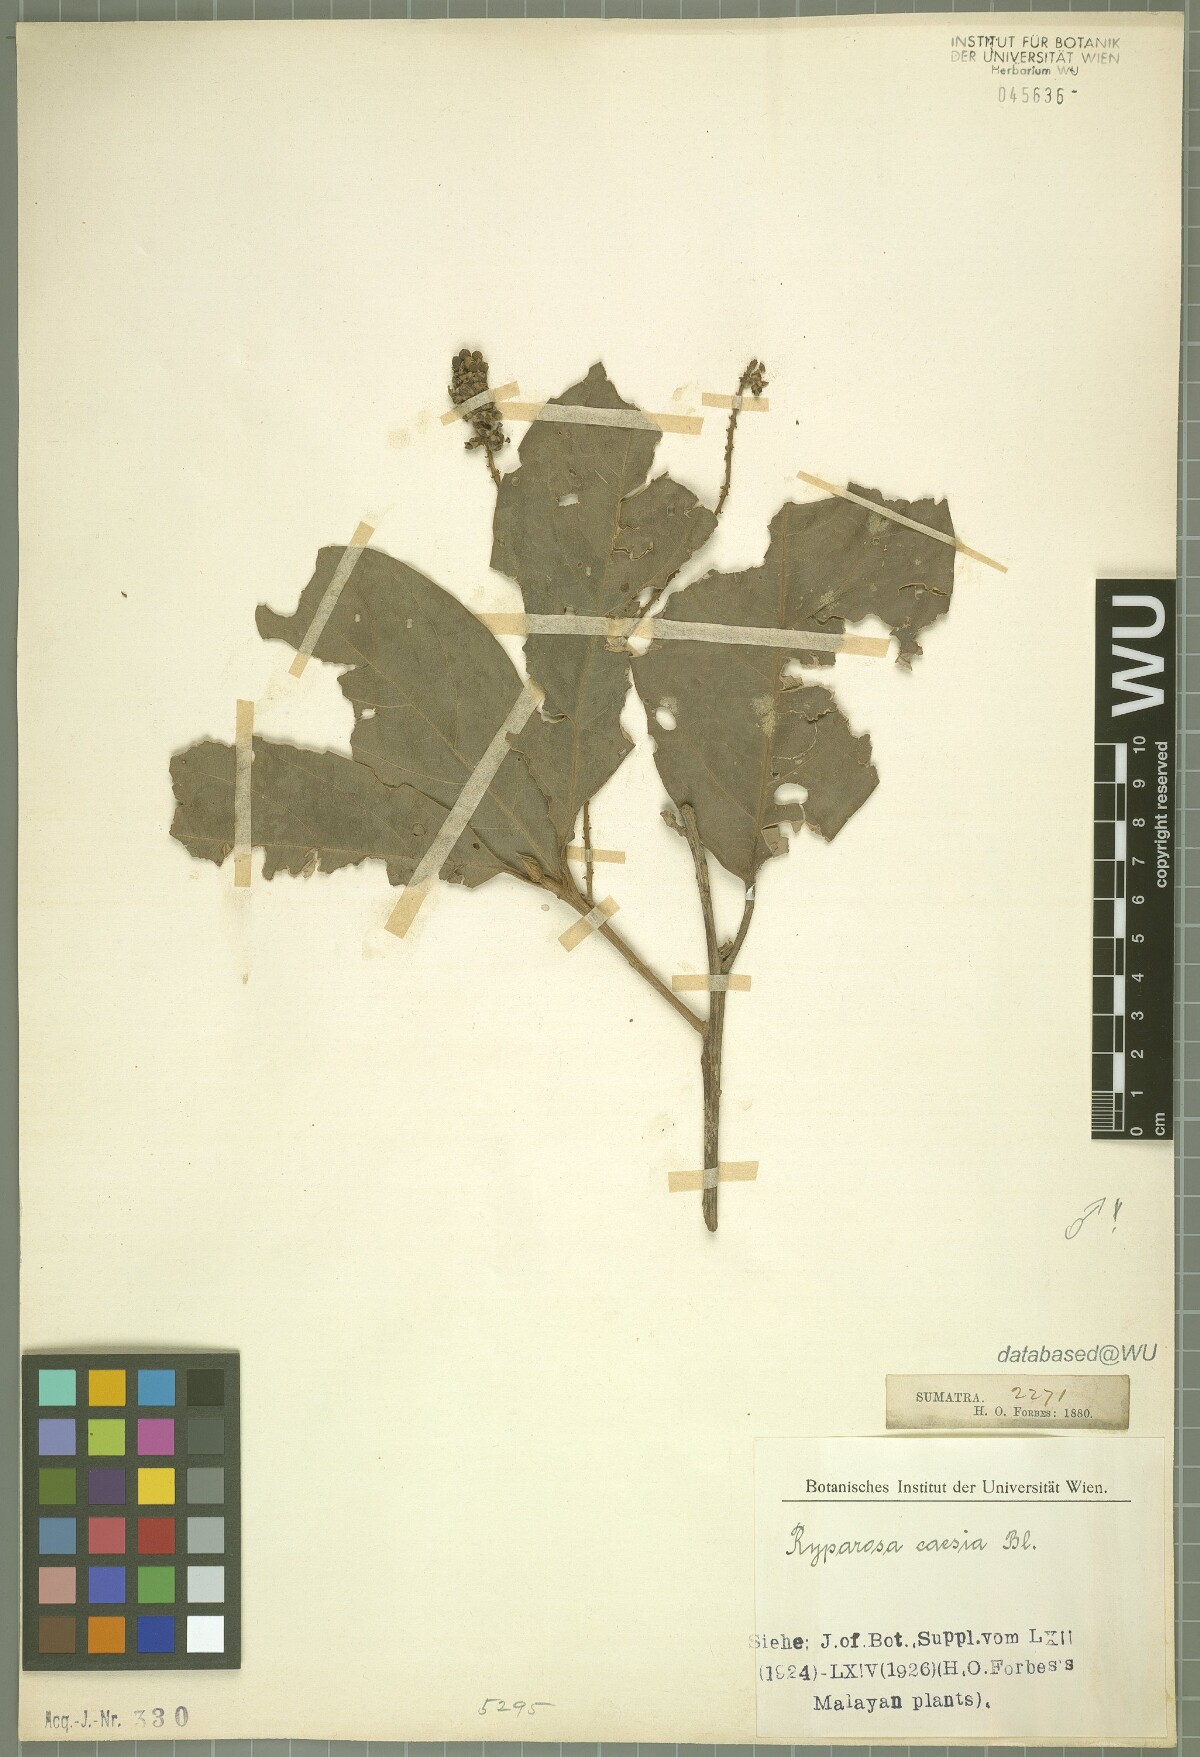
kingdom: Plantae
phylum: Tracheophyta
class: Magnoliopsida
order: Malpighiales
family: Achariaceae
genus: Ryparosa
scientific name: Ryparosa caesia
